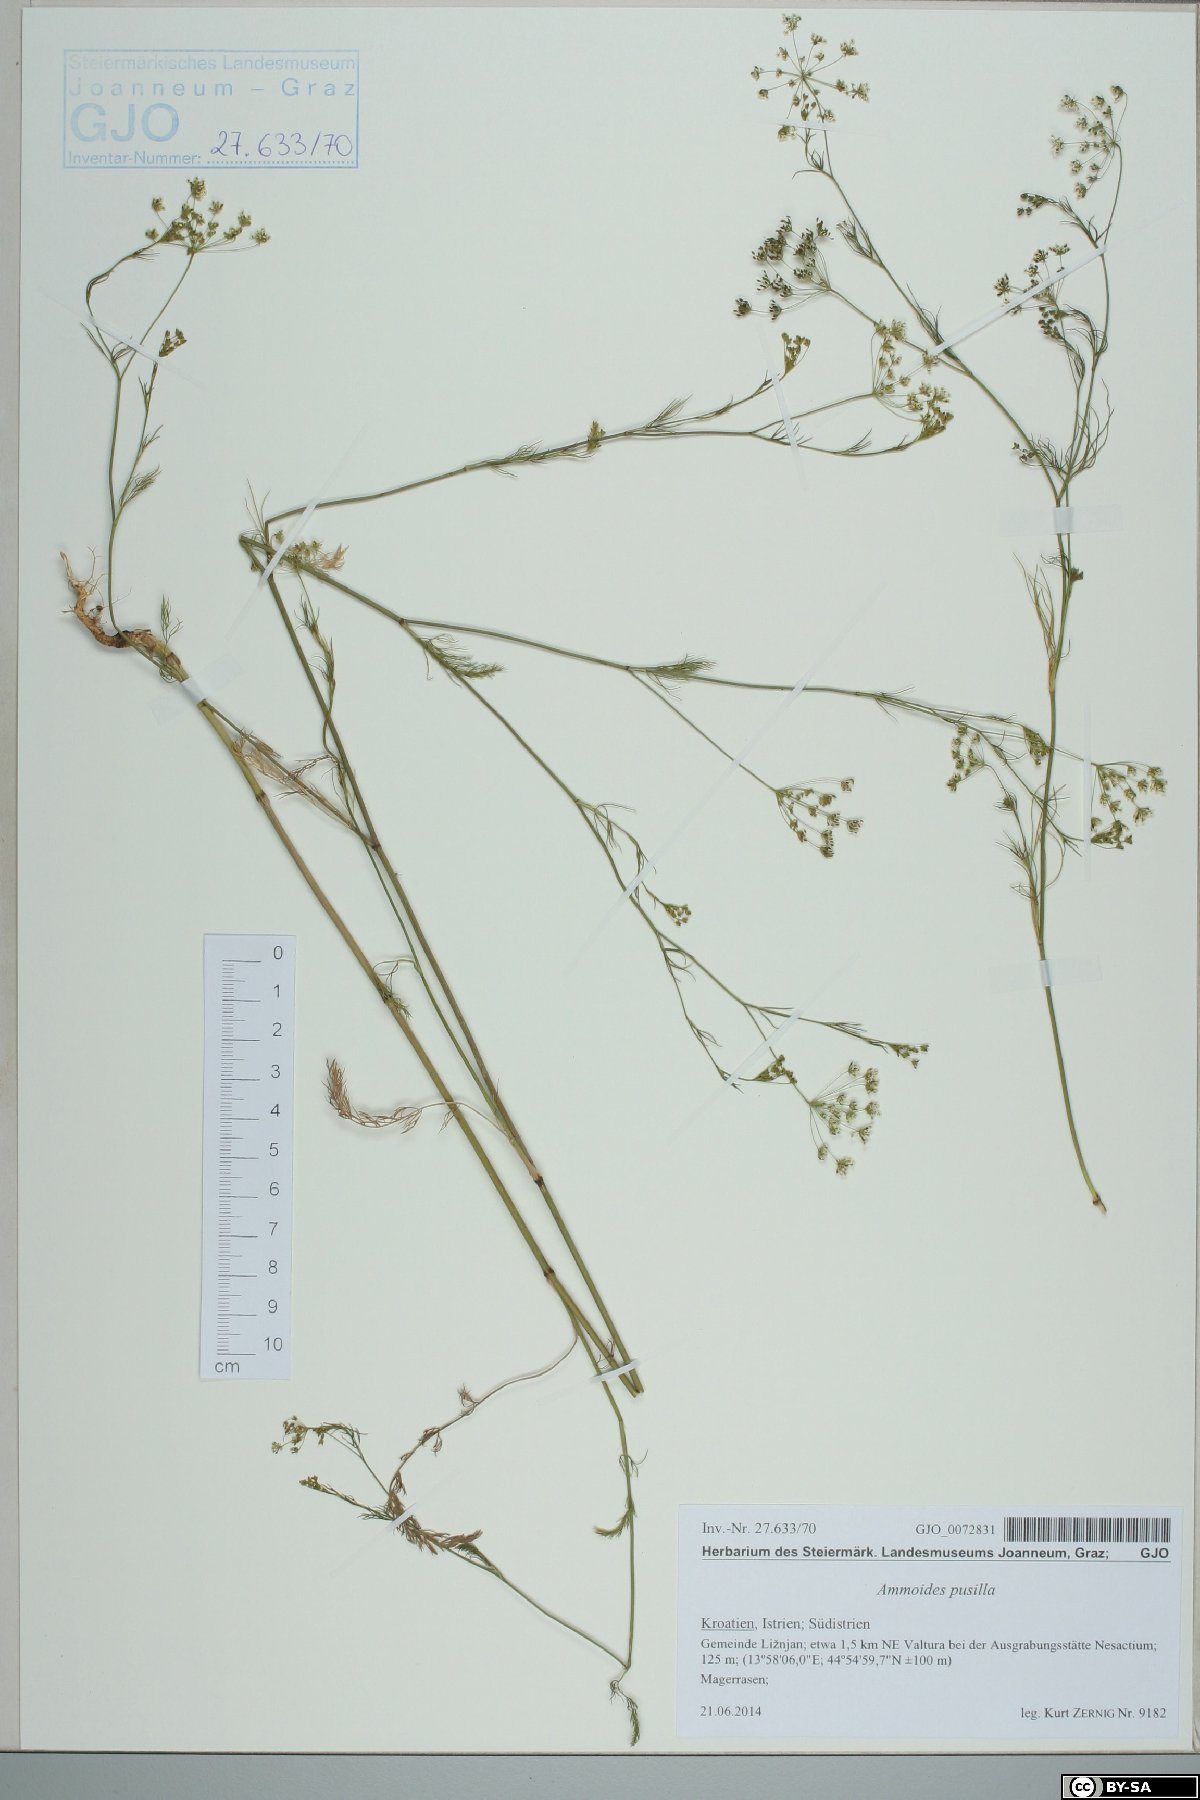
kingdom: Plantae
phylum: Tracheophyta
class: Magnoliopsida
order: Apiales
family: Apiaceae
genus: Ammoides
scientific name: Ammoides pusilla
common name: Cerfolium
